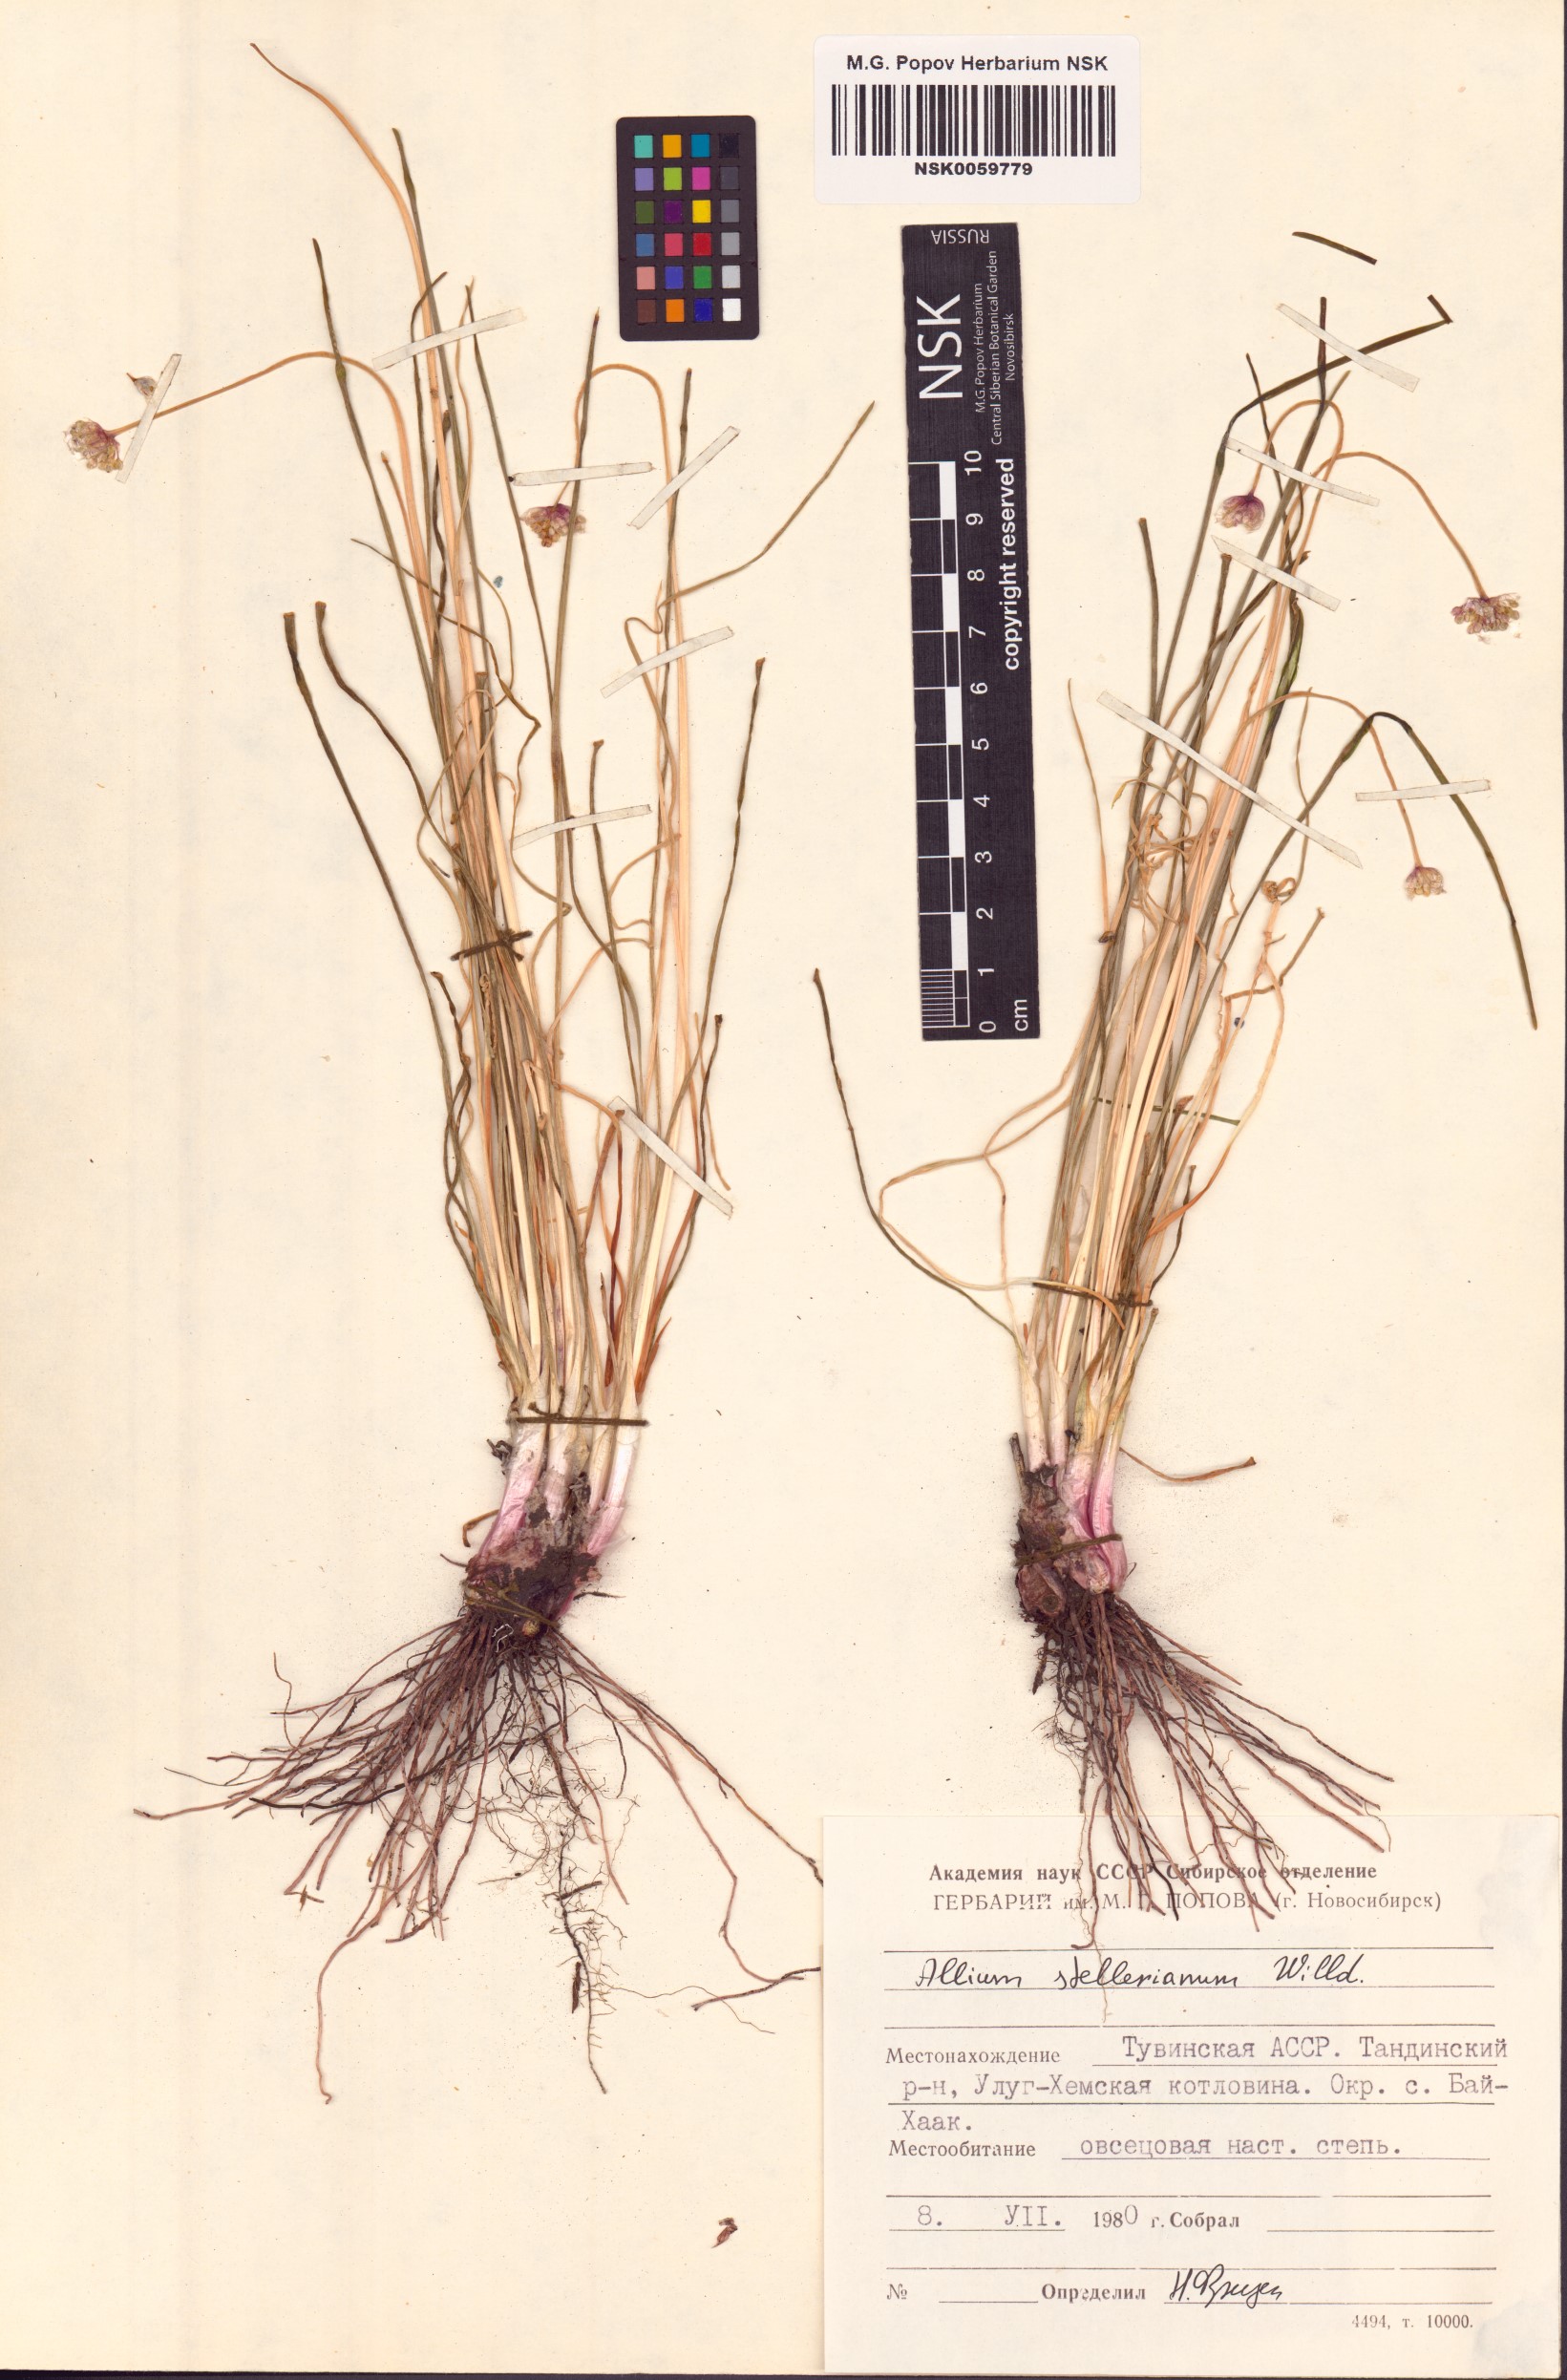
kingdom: Plantae
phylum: Tracheophyta
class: Liliopsida
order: Asparagales
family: Amaryllidaceae
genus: Allium
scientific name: Allium stellerianum
